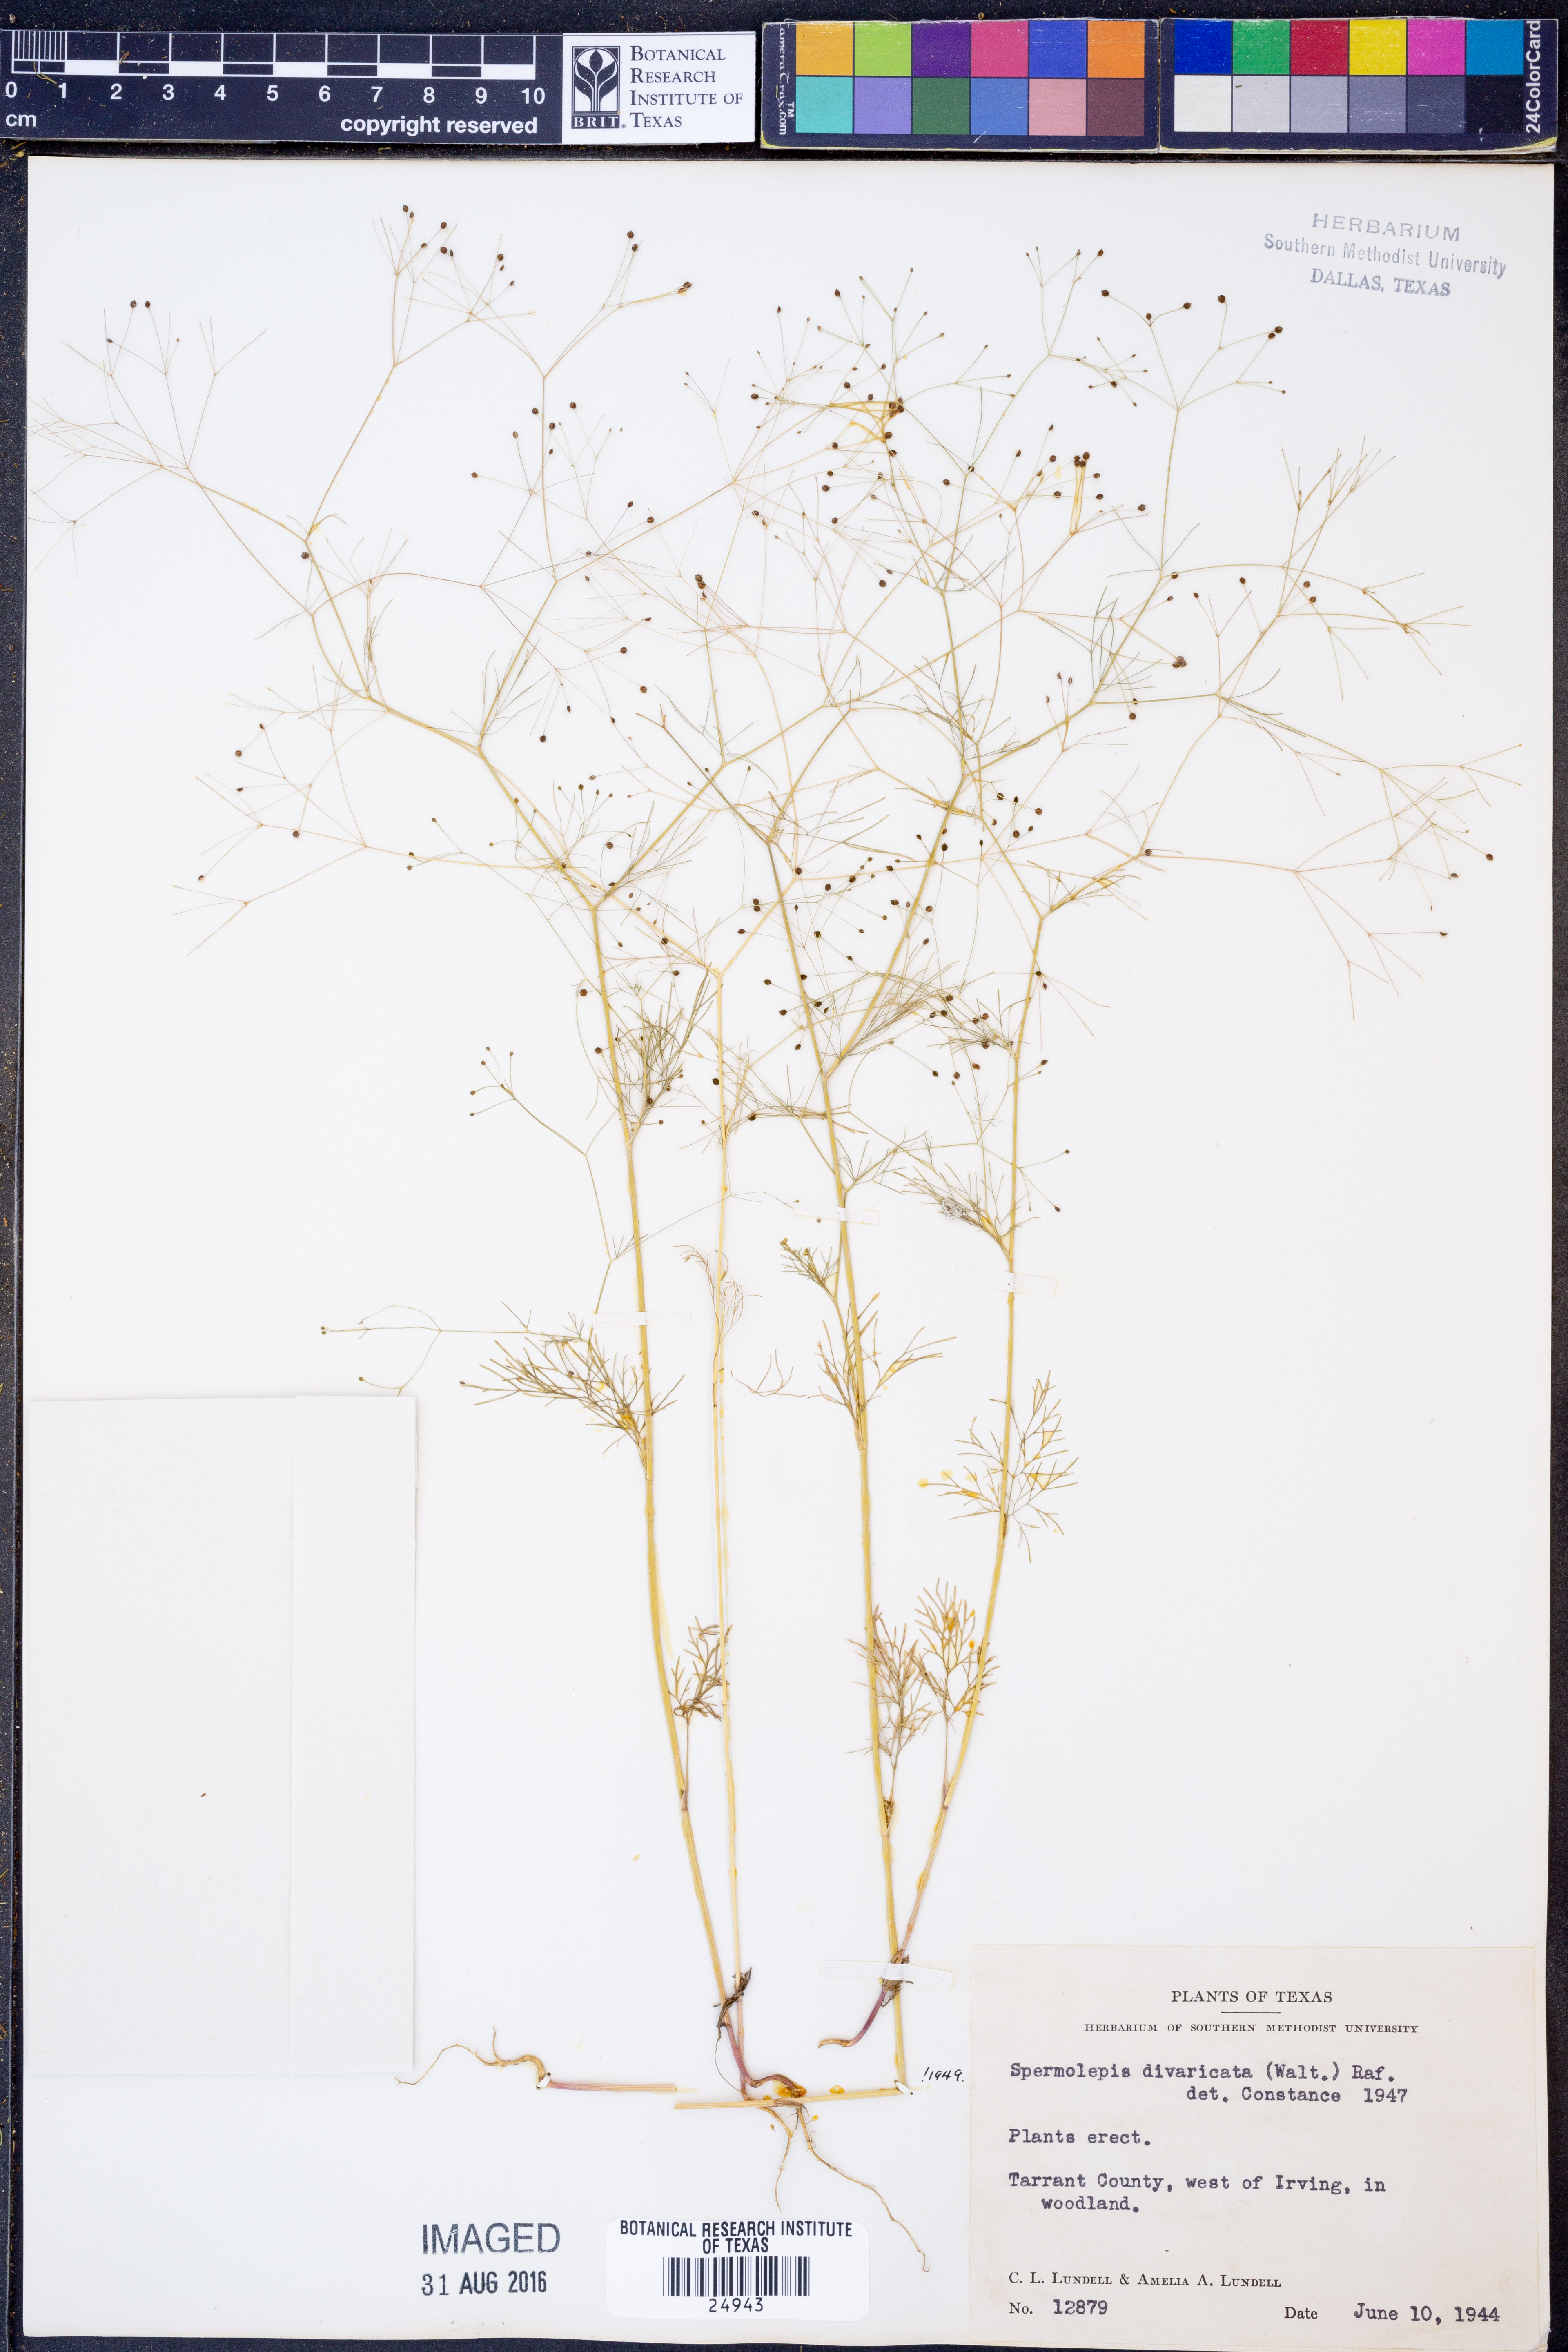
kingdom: Plantae
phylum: Tracheophyta
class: Magnoliopsida
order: Apiales
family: Apiaceae
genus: Spermolepis
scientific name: Spermolepis divaricata
